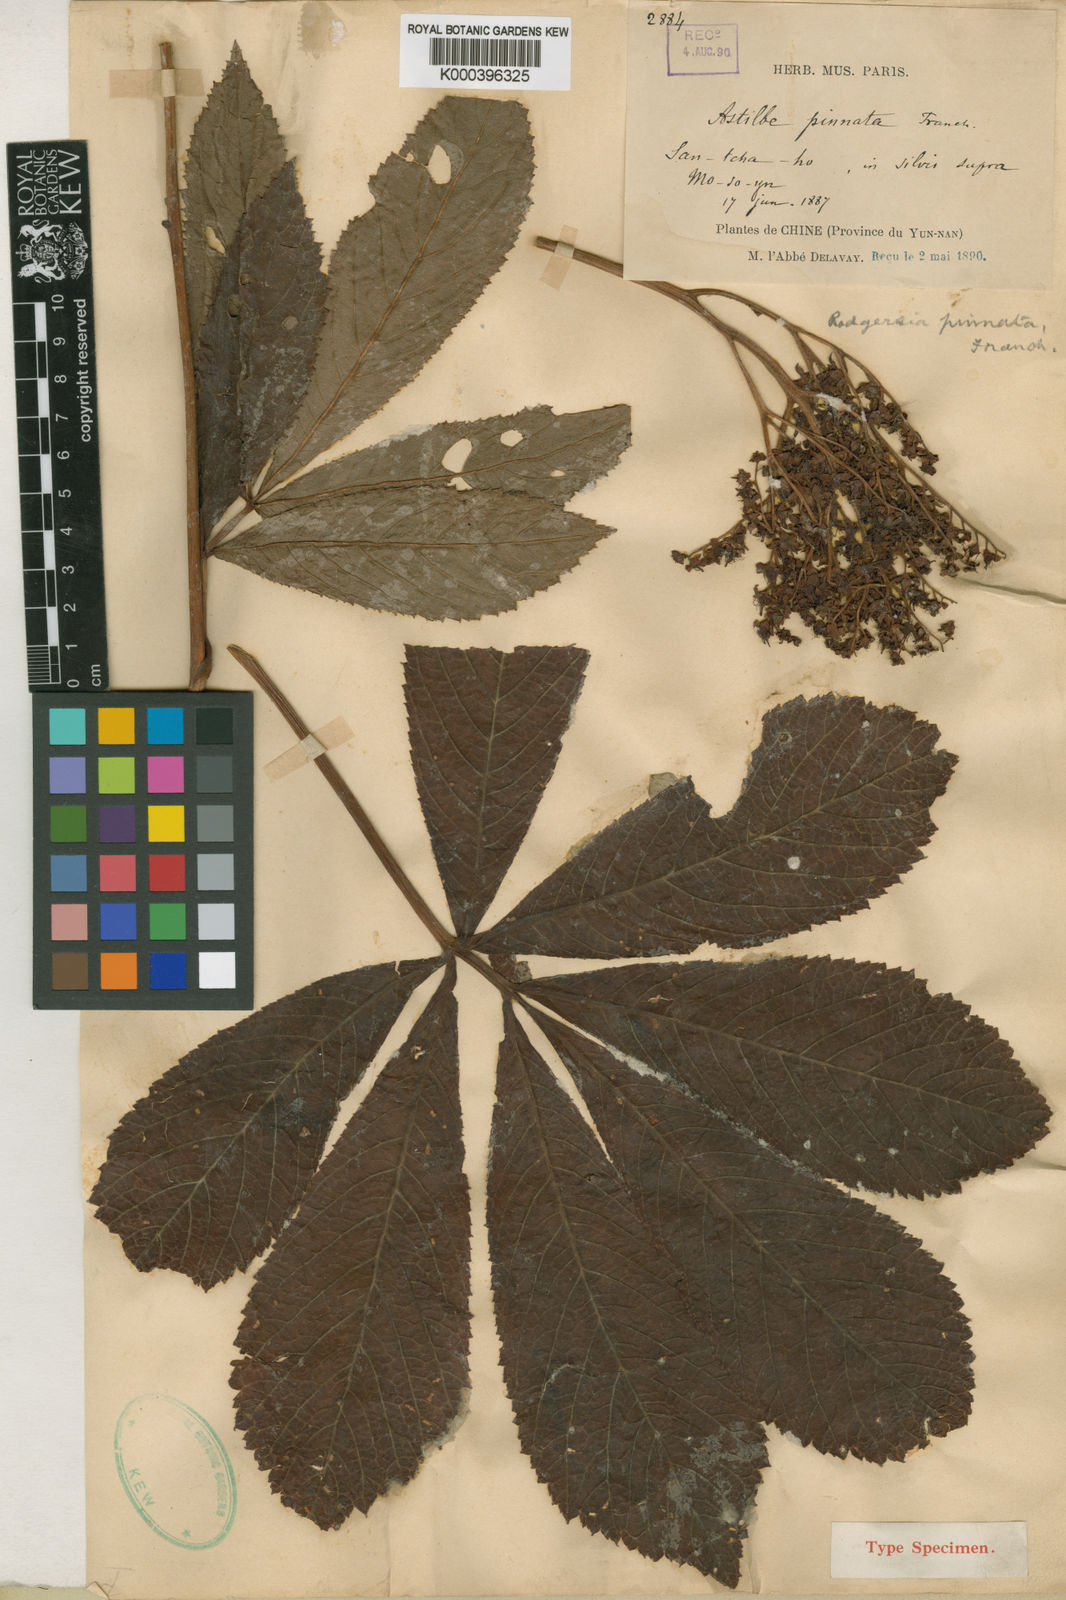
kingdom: Plantae
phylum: Tracheophyta
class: Magnoliopsida
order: Saxifragales
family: Saxifragaceae
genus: Rodgersia
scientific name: Rodgersia pinnata
